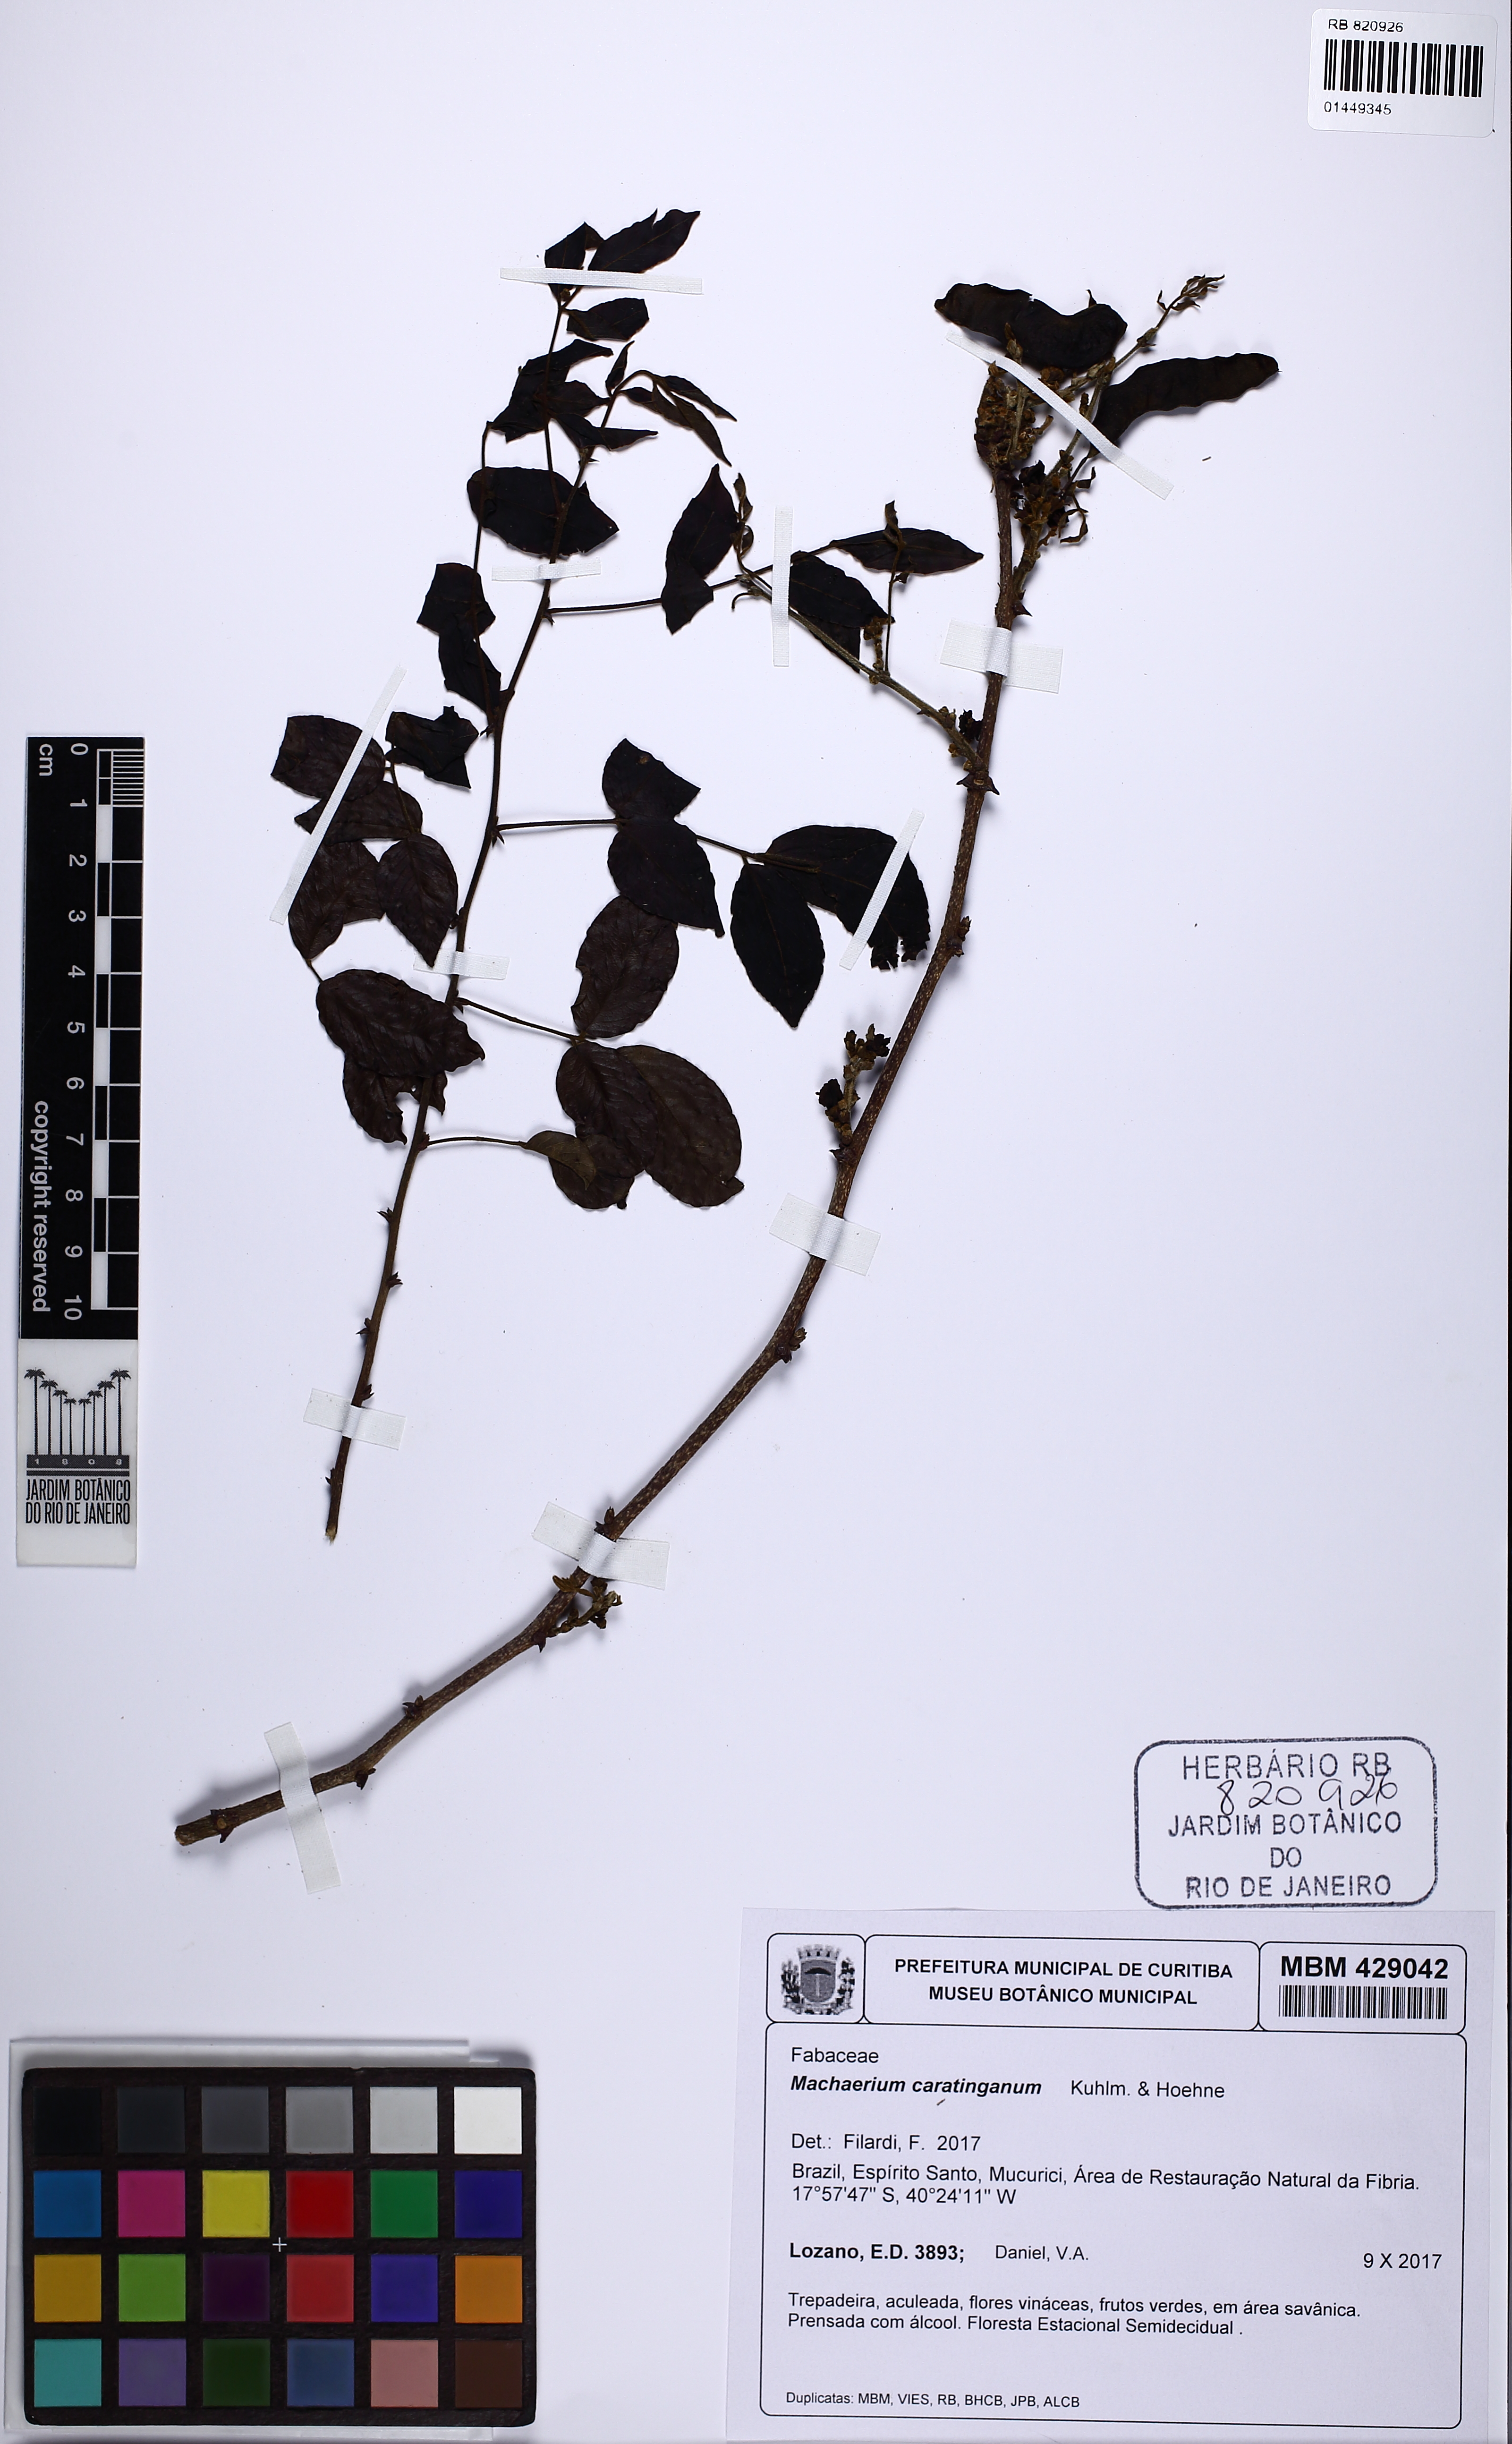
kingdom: Plantae
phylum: Tracheophyta
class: Magnoliopsida
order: Fabales
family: Fabaceae
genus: Machaerium
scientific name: Machaerium caratinganum
